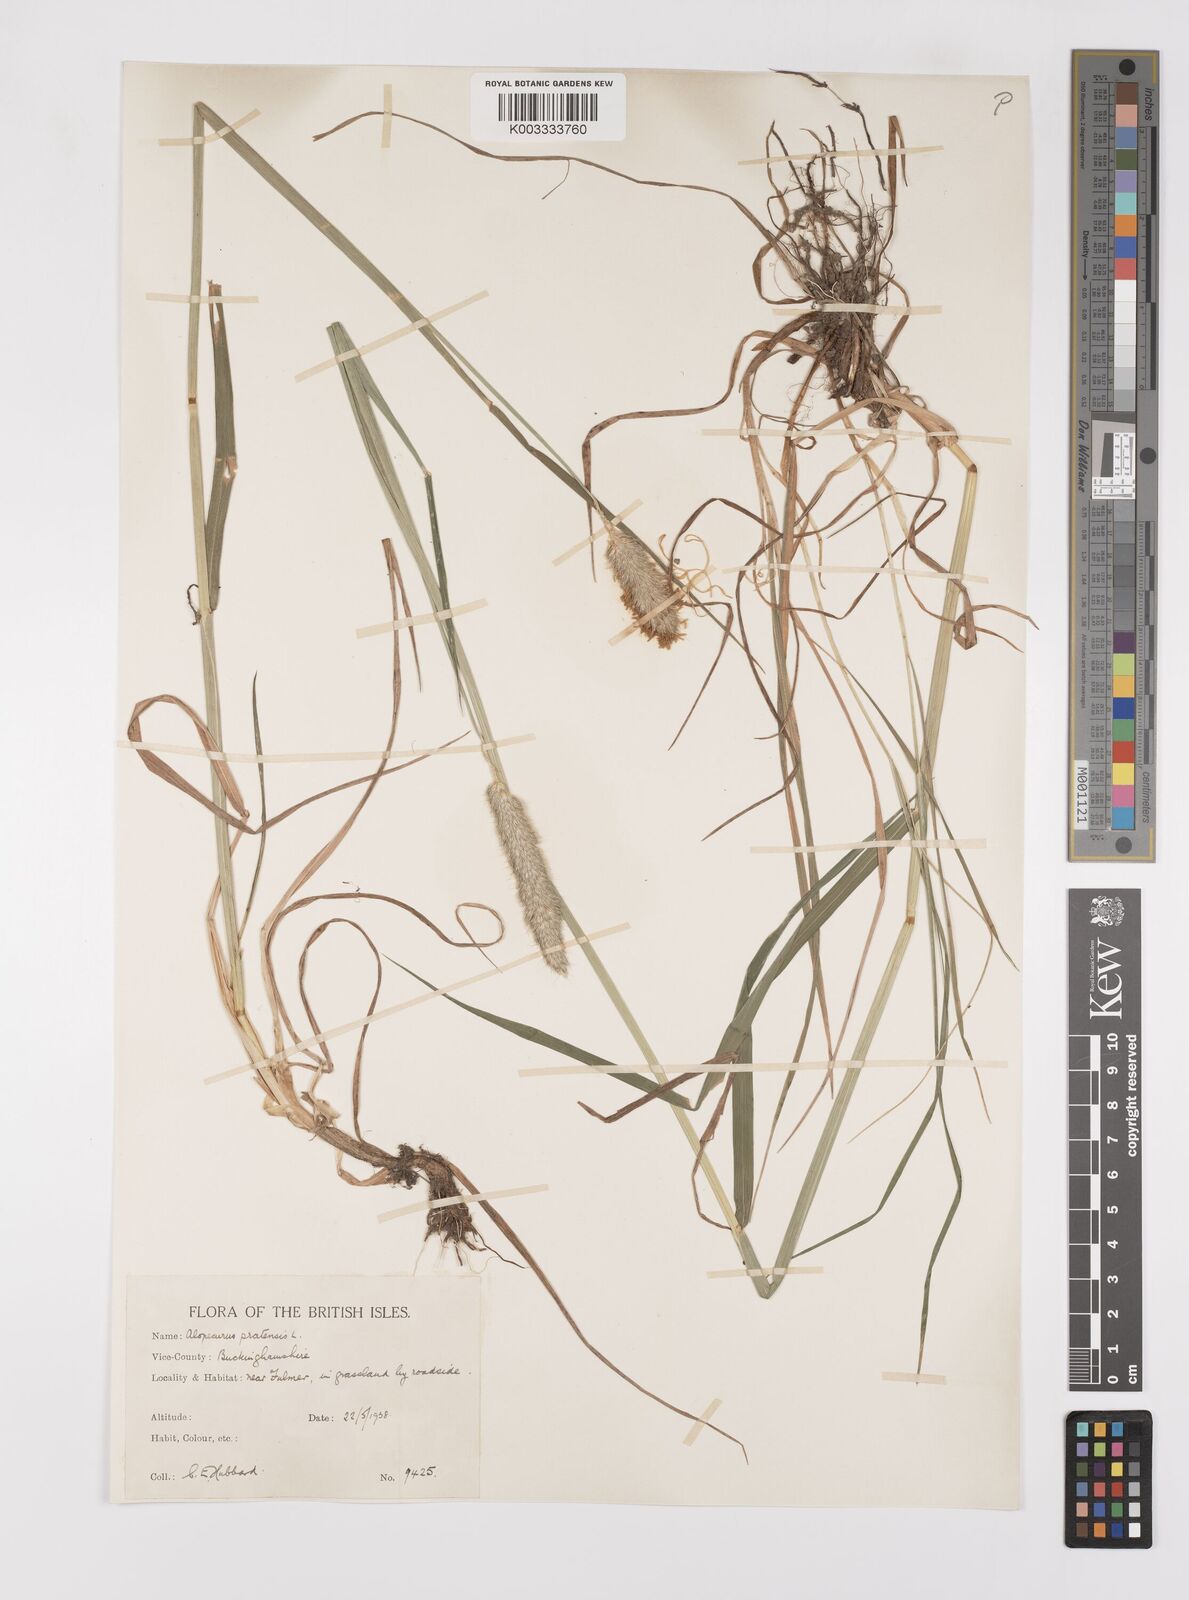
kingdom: Plantae
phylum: Tracheophyta
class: Liliopsida
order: Poales
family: Poaceae
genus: Alopecurus
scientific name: Alopecurus pratensis
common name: Meadow foxtail
